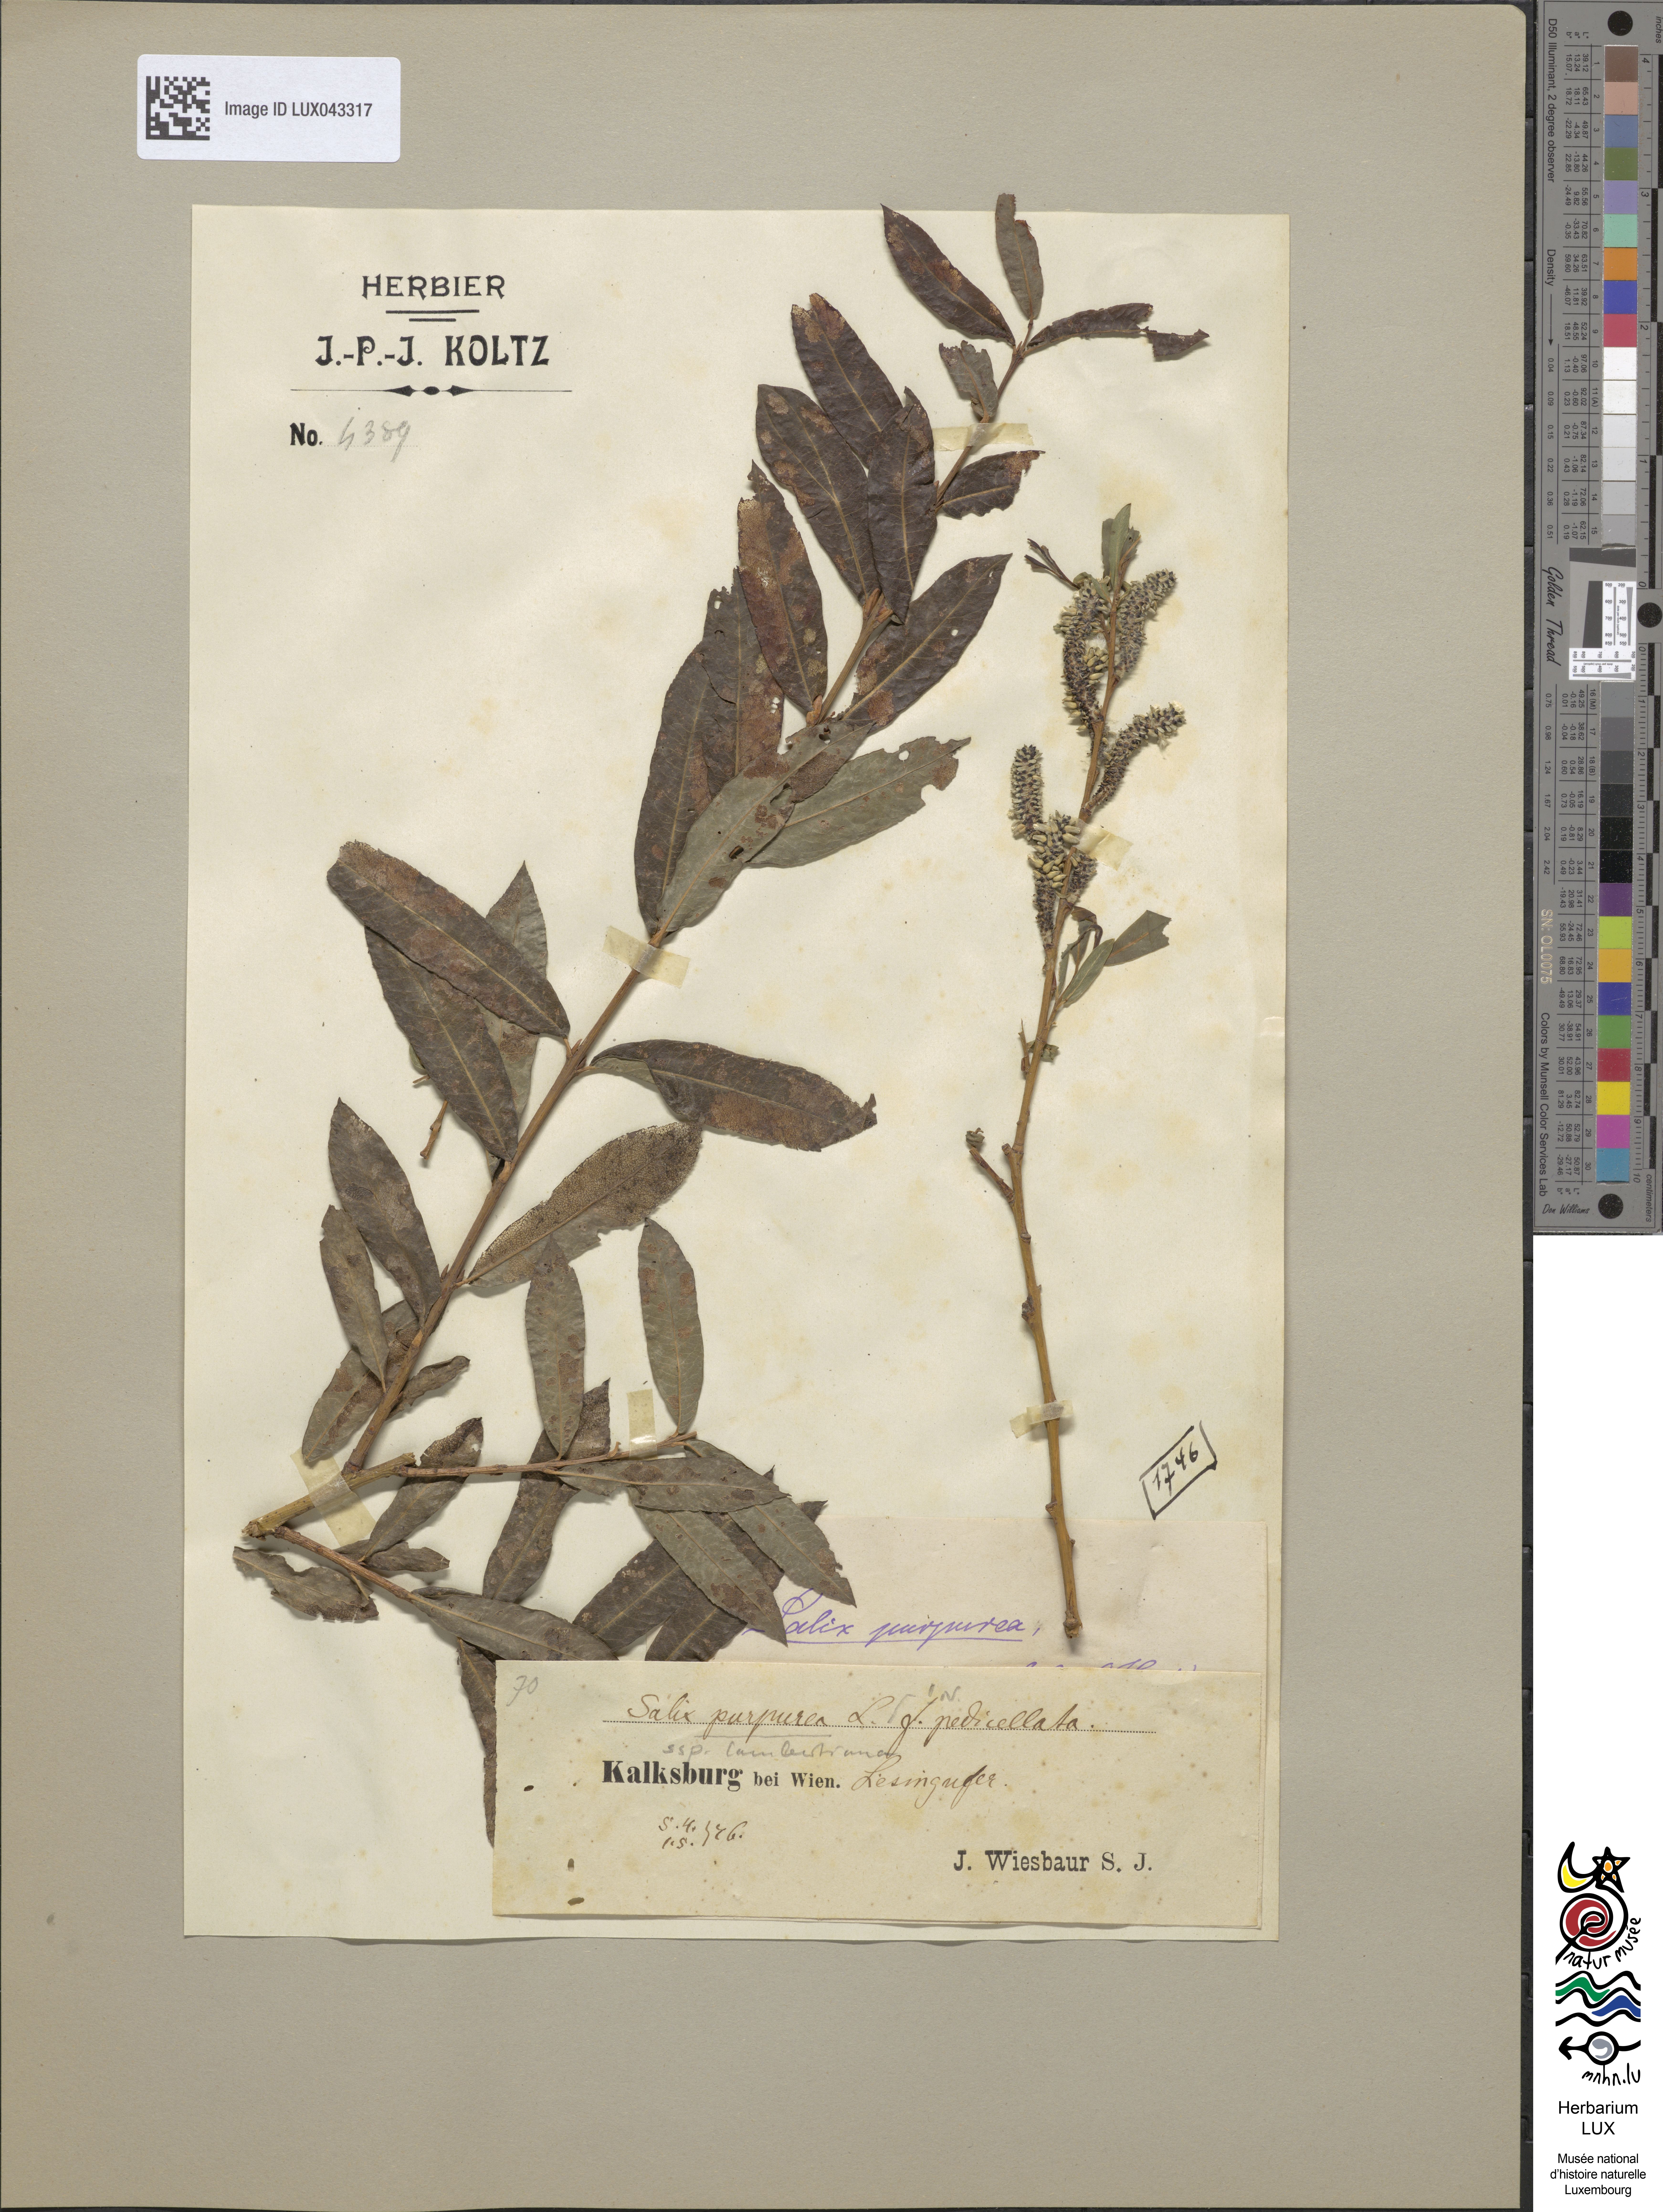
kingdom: Plantae
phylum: Tracheophyta
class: Magnoliopsida
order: Malpighiales
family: Salicaceae
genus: Salix
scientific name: Salix lambertiana
